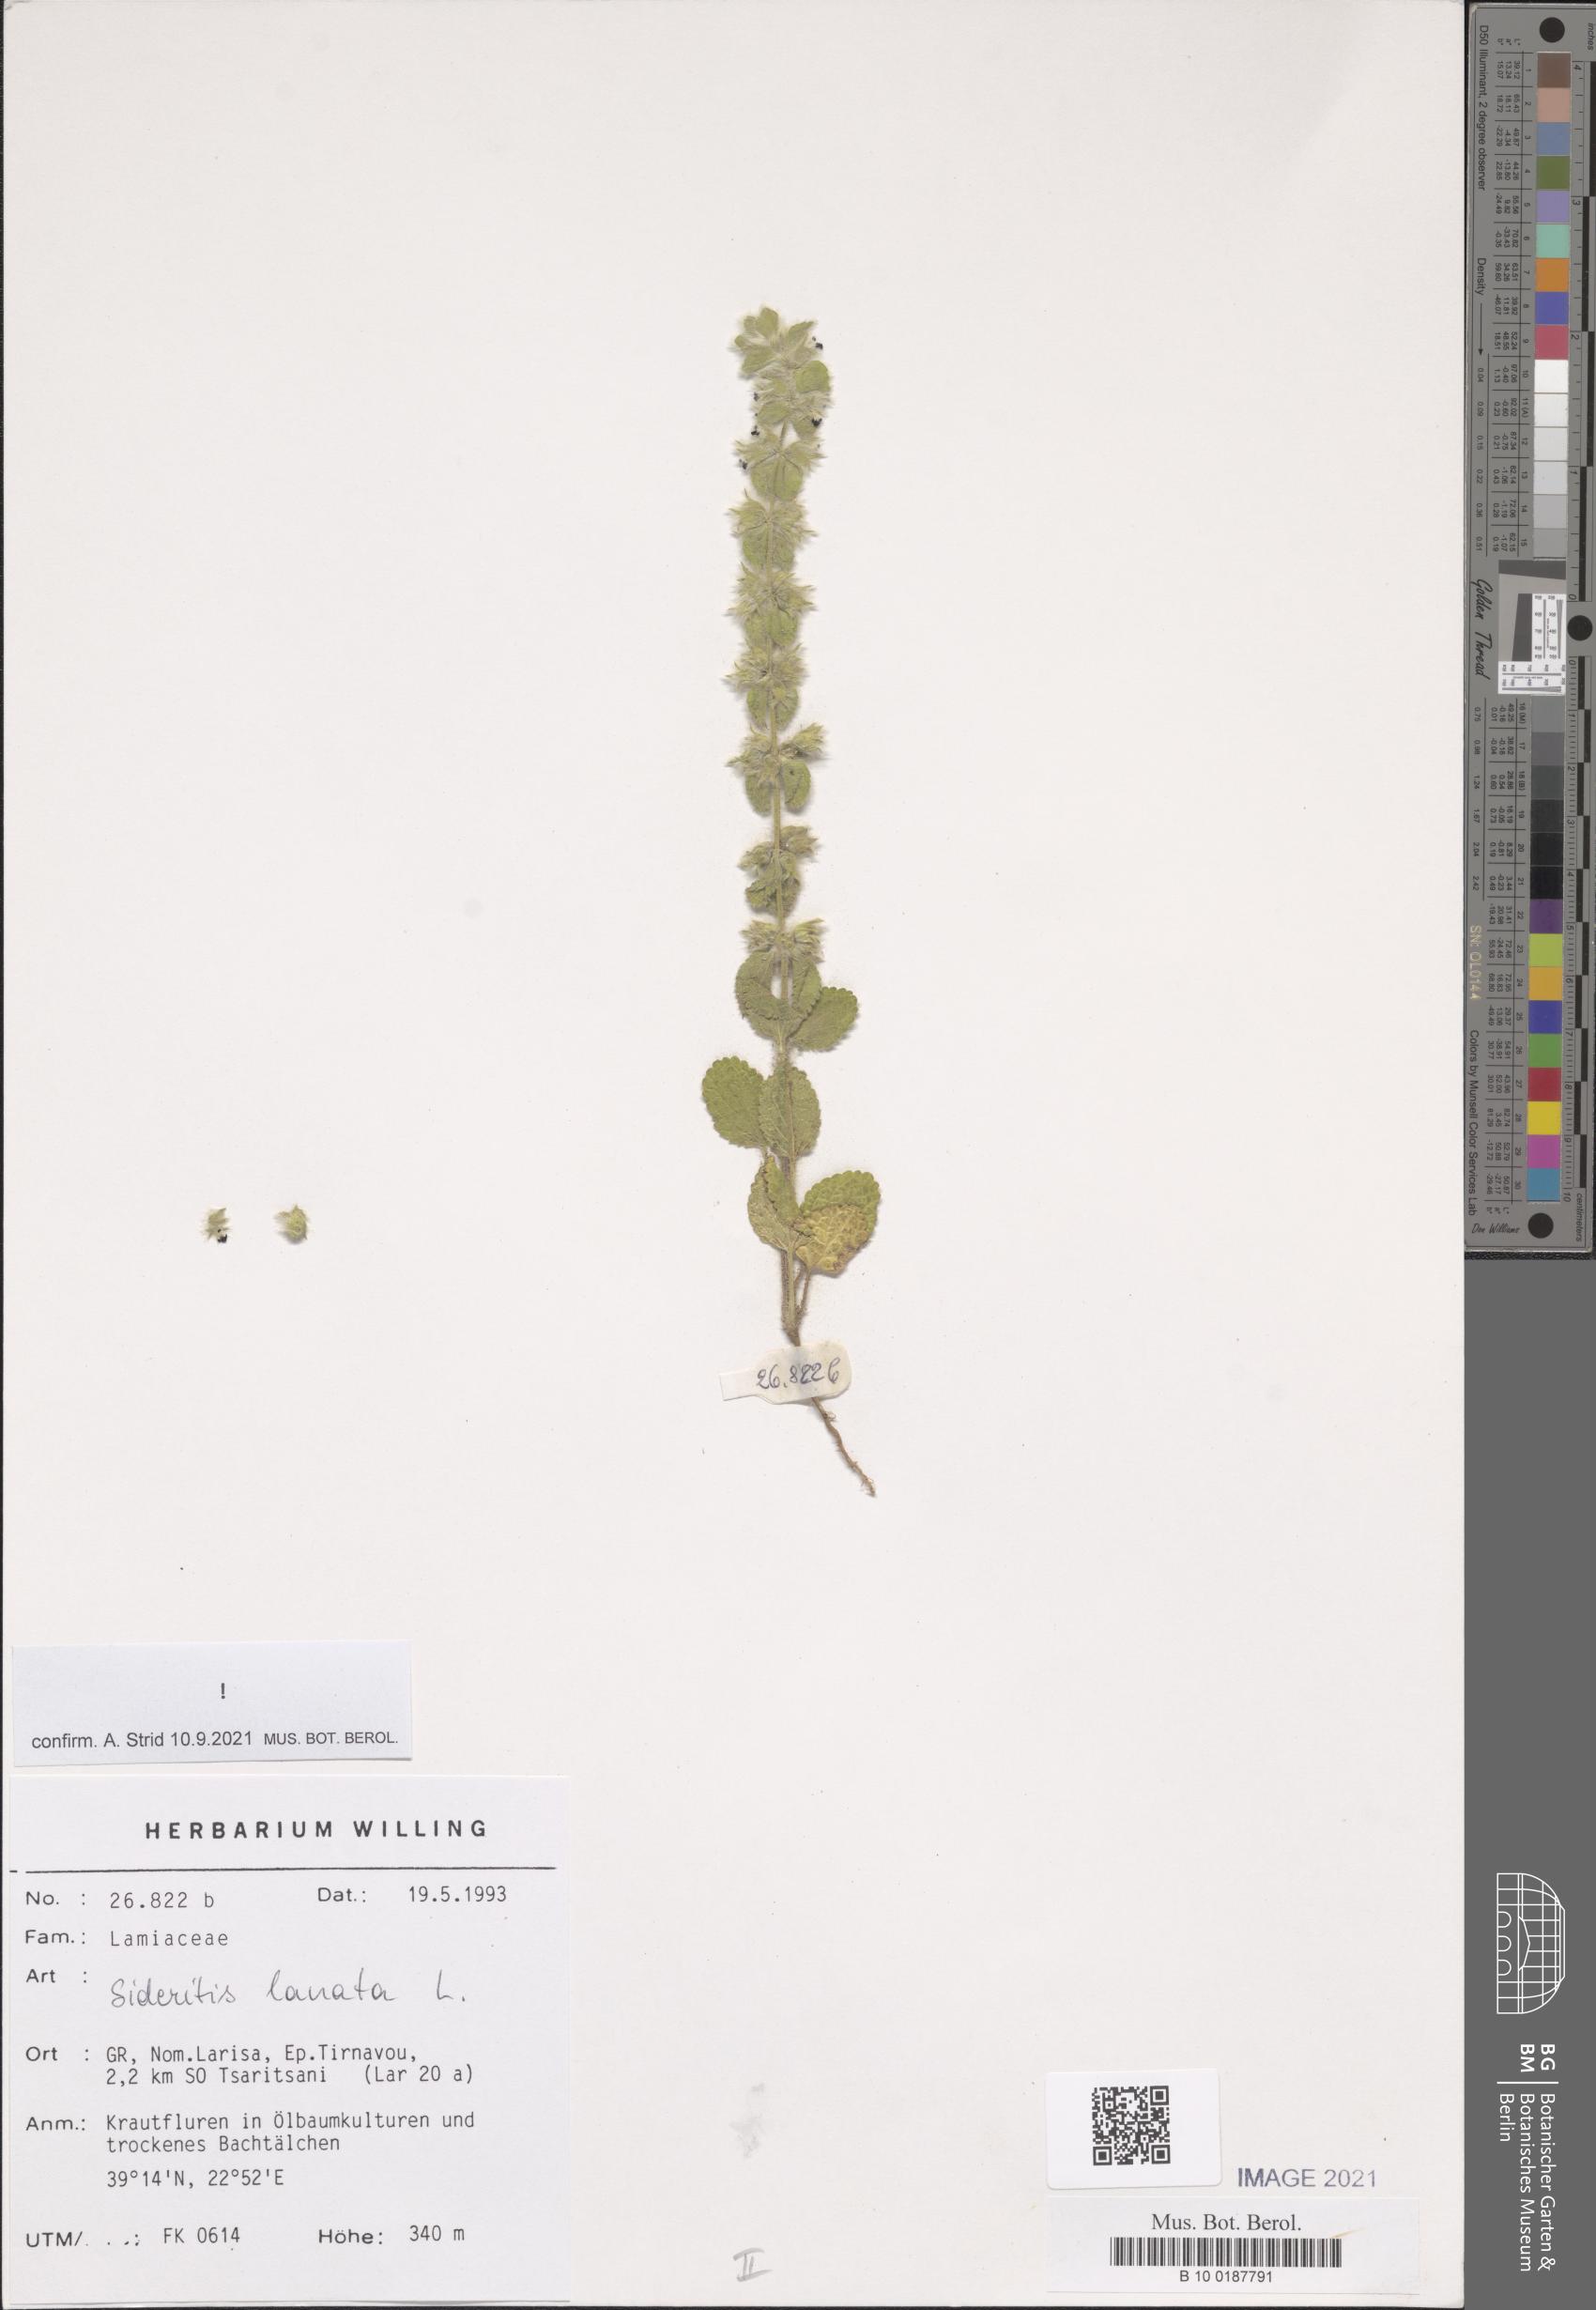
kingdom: Plantae
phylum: Tracheophyta
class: Magnoliopsida
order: Lamiales
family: Lamiaceae
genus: Sideritis
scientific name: Sideritis lanata
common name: Hairy ironwort
